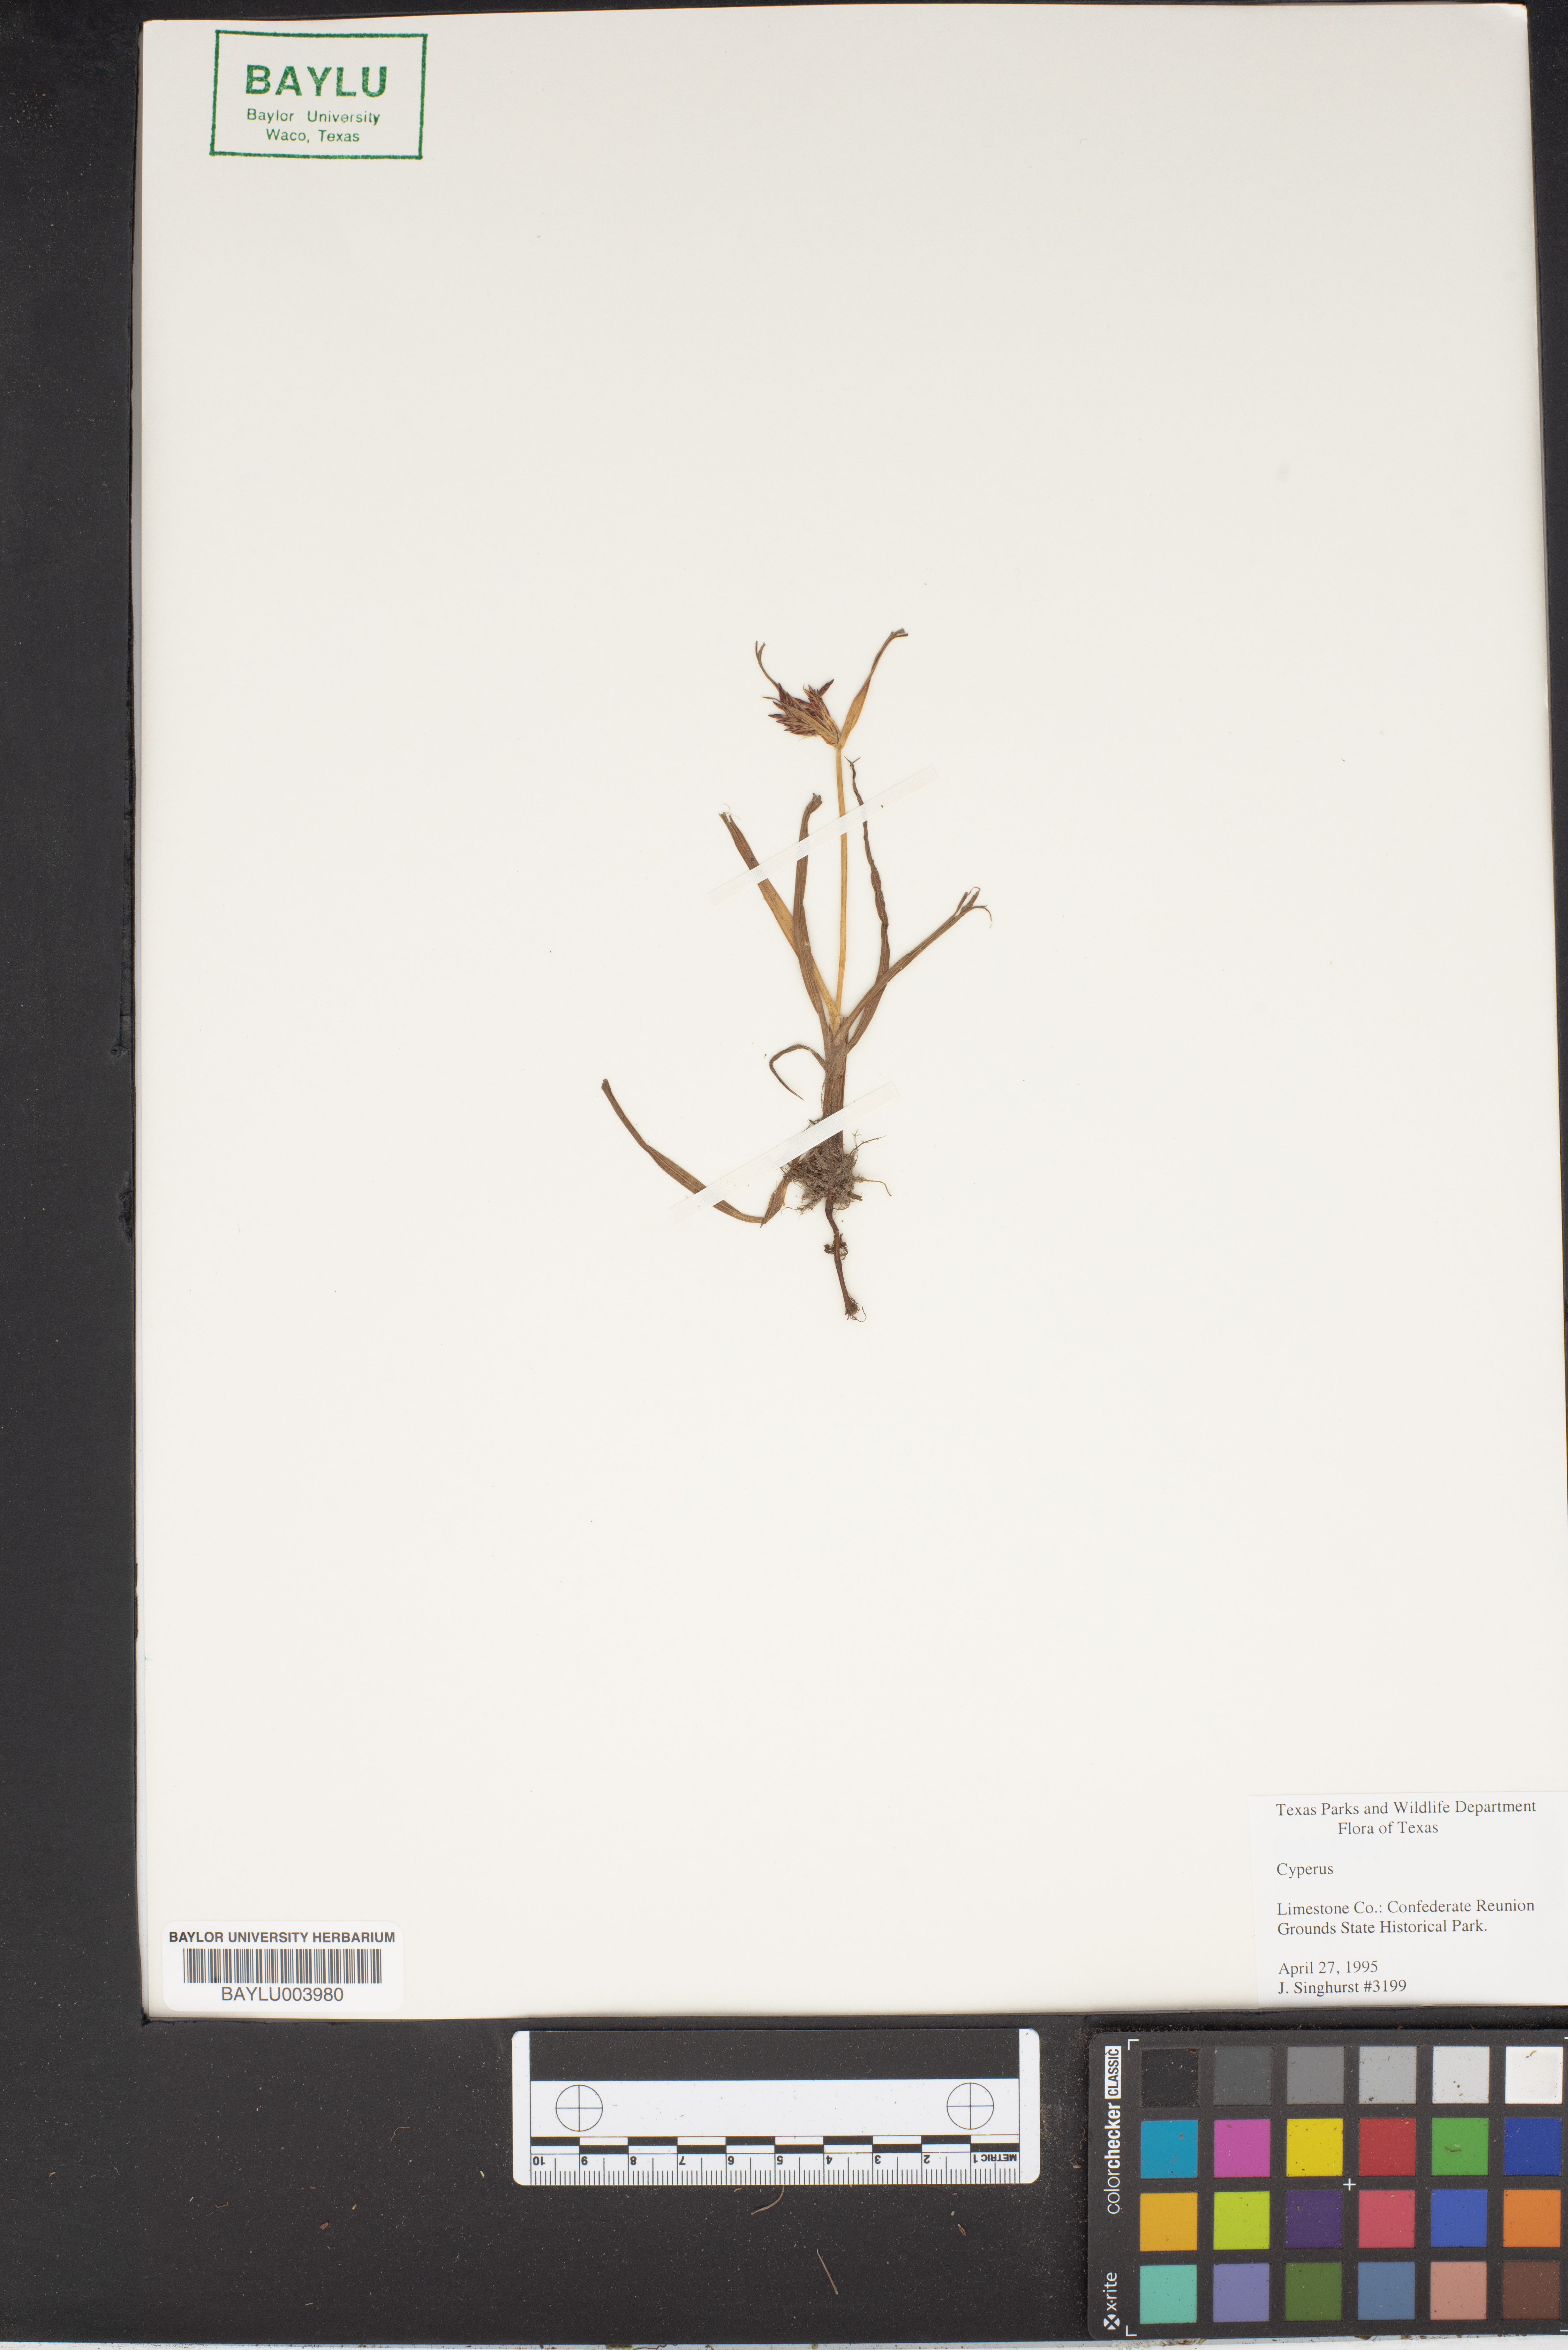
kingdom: Plantae
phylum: Tracheophyta
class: Liliopsida
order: Poales
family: Cyperaceae
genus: Cyperus
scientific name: Cyperus
